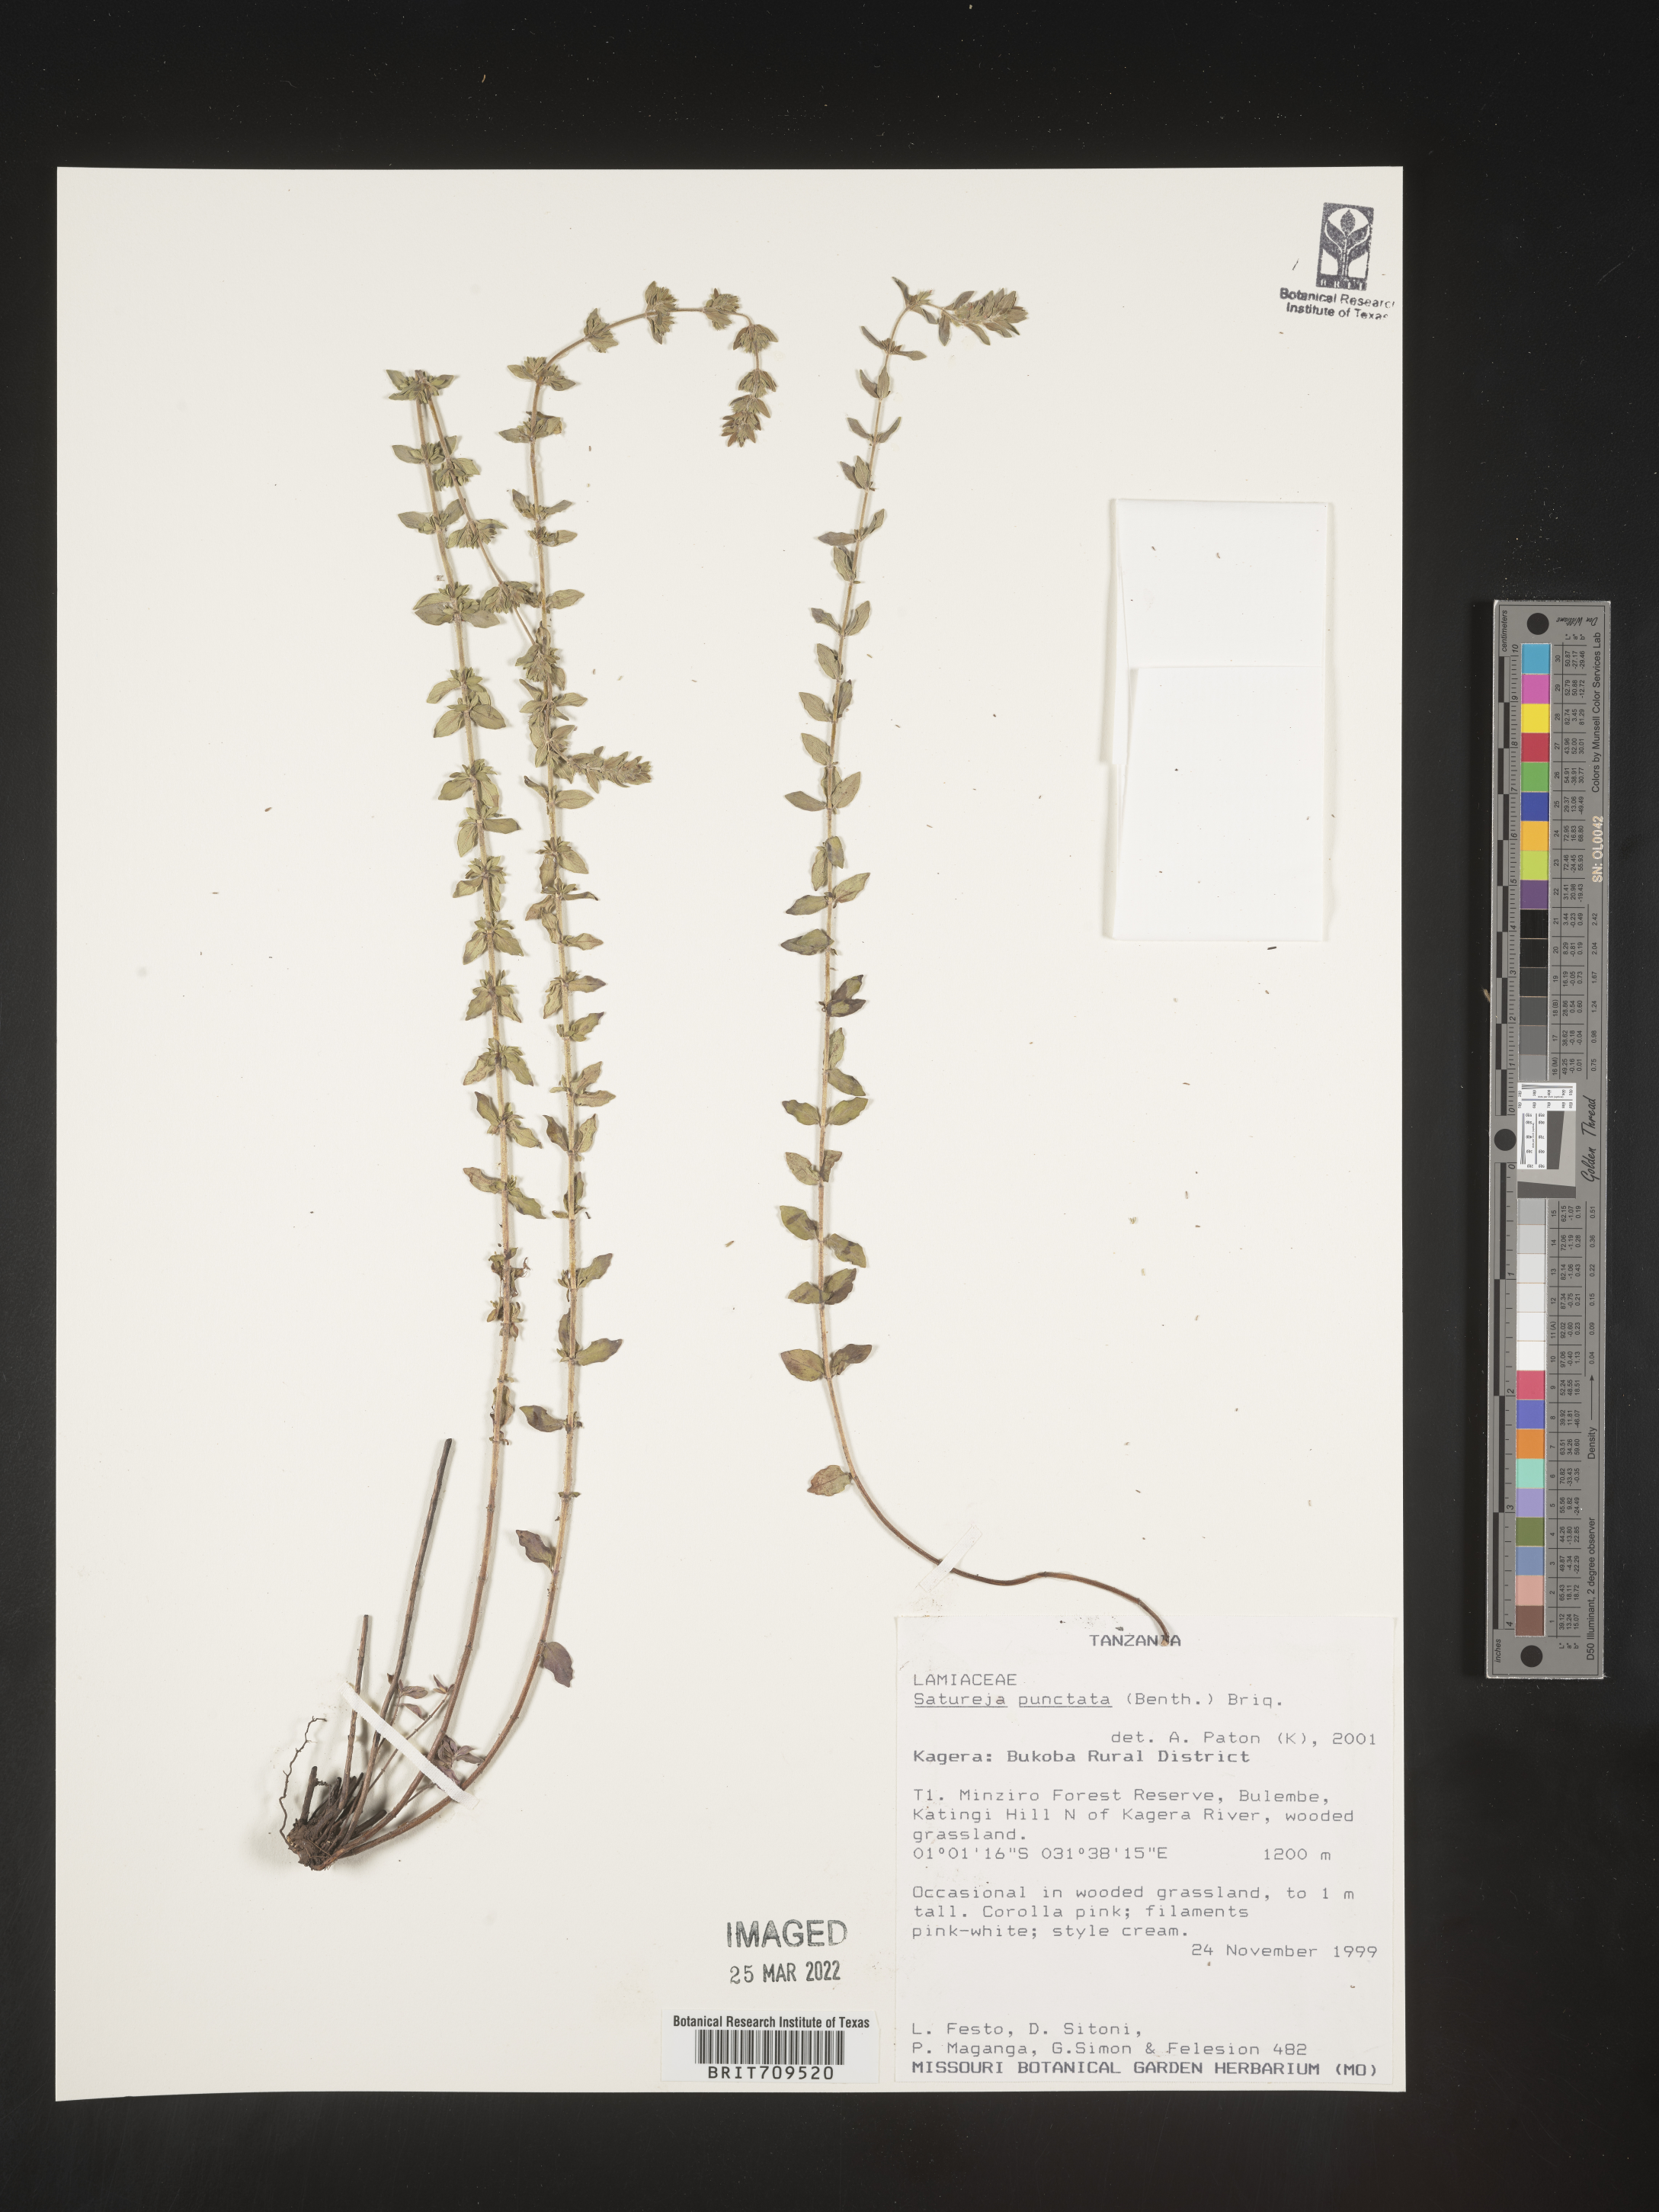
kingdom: Plantae
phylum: Tracheophyta
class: Magnoliopsida
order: Lamiales
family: Lamiaceae
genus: Satureja
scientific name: Satureja
